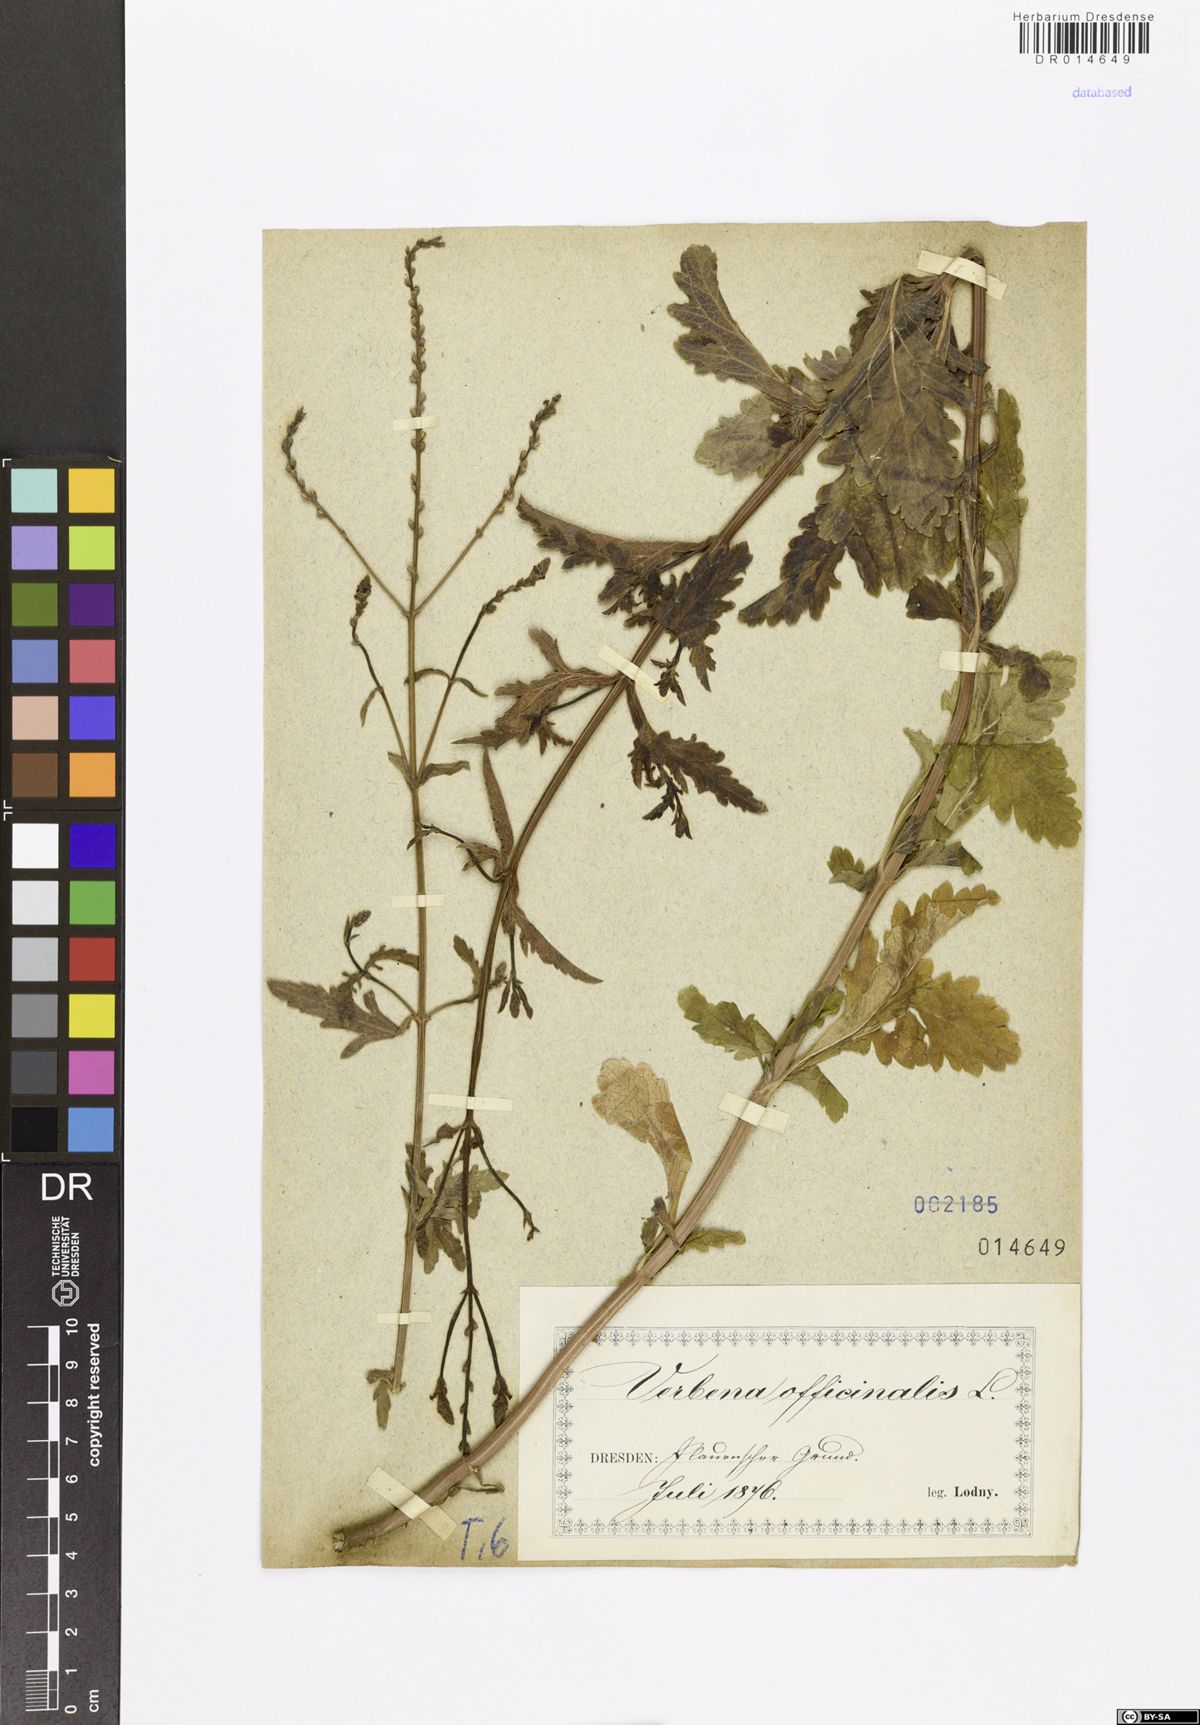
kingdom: Plantae
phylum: Tracheophyta
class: Magnoliopsida
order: Lamiales
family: Verbenaceae
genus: Verbena
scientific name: Verbena officinalis
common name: Vervain
